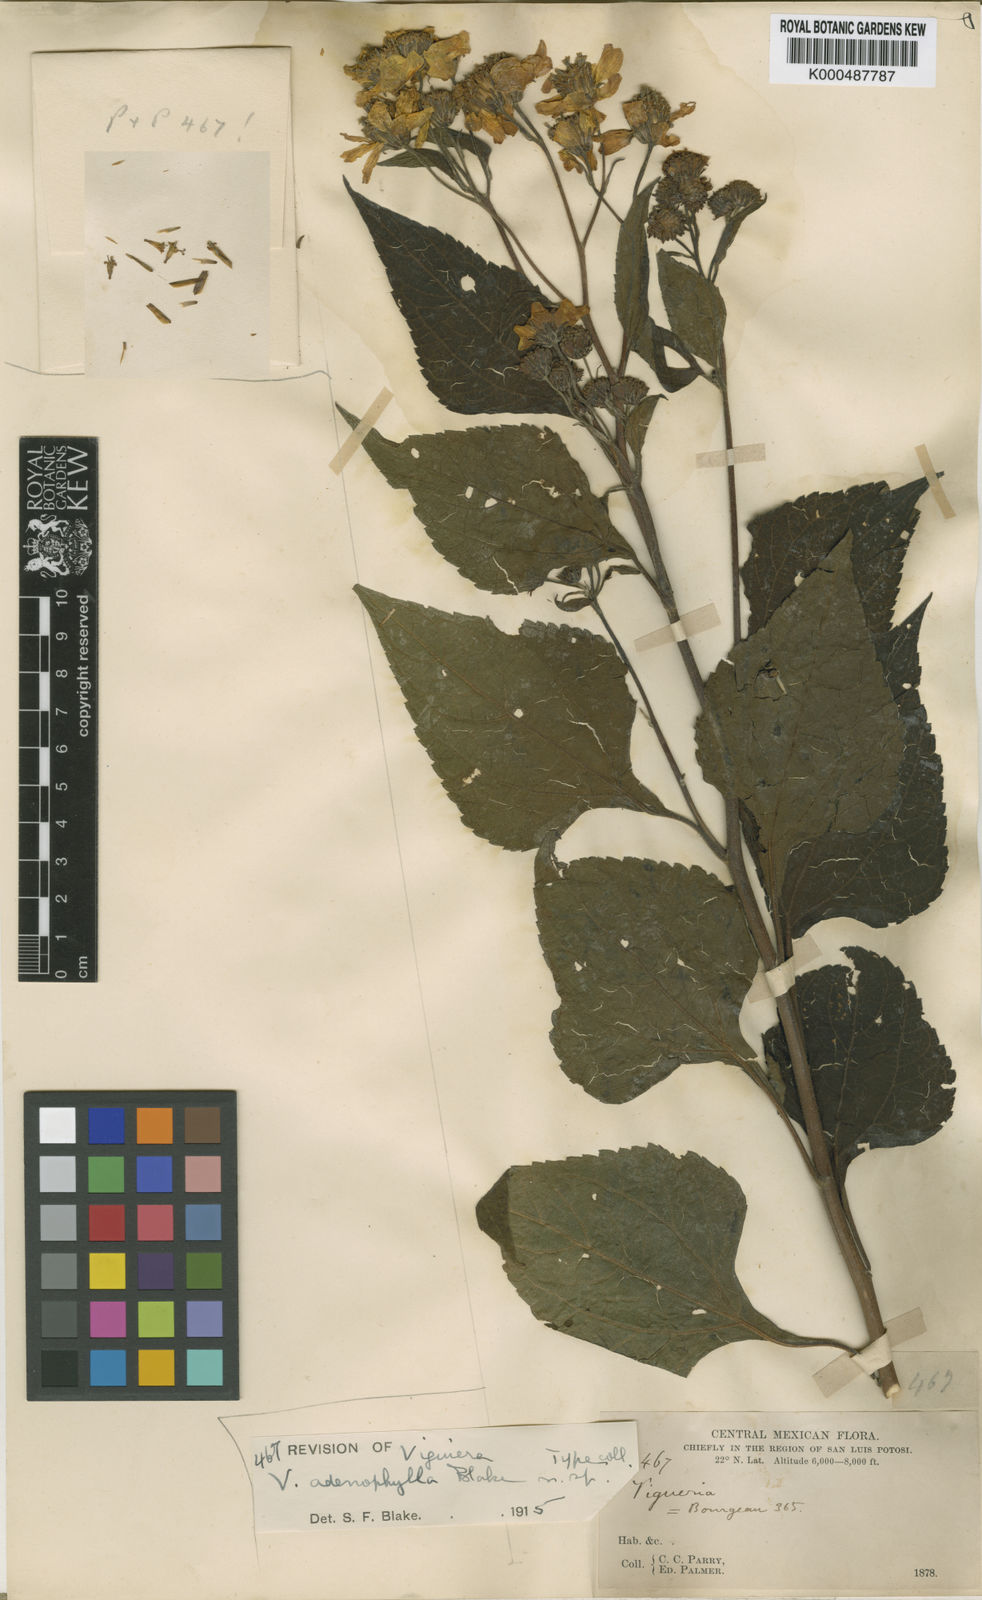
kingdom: Plantae
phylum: Tracheophyta
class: Magnoliopsida
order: Asterales
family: Asteraceae
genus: Dendroviguiera
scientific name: Dendroviguiera adenophylla
